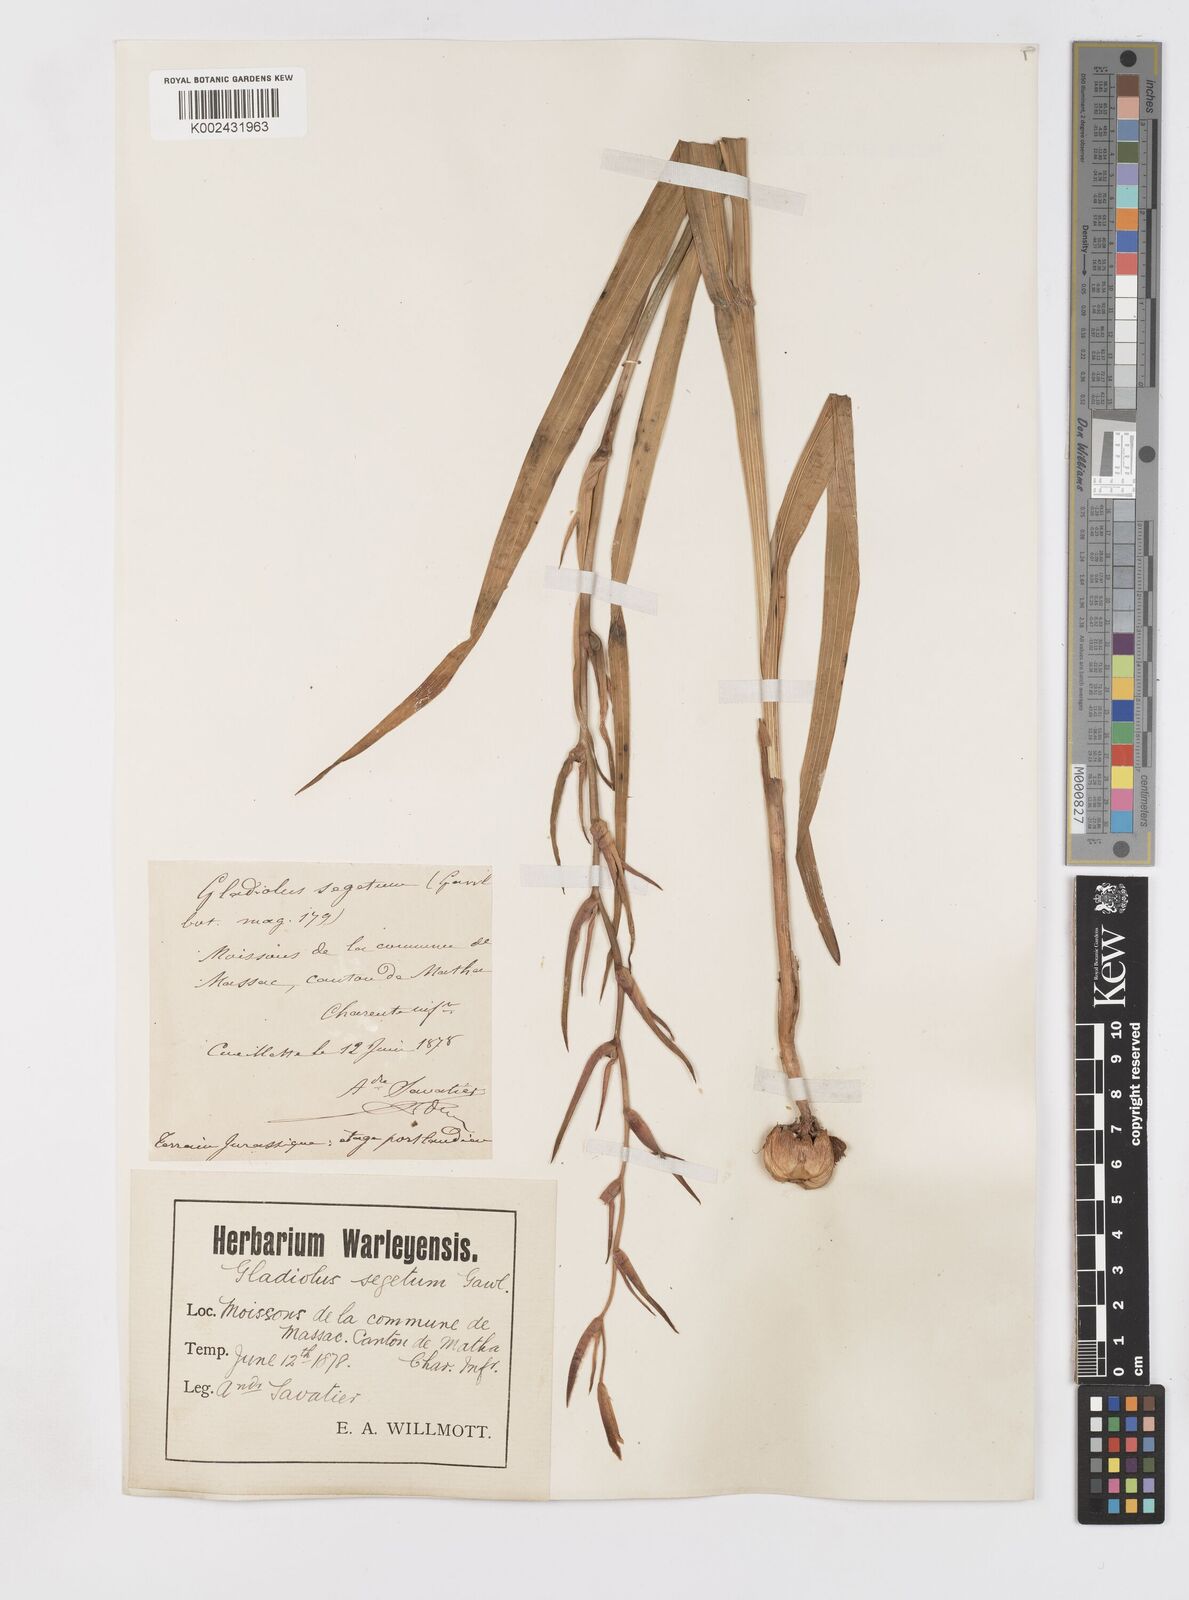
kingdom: Plantae
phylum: Tracheophyta
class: Liliopsida
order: Asparagales
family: Iridaceae
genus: Gladiolus
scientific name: Gladiolus
